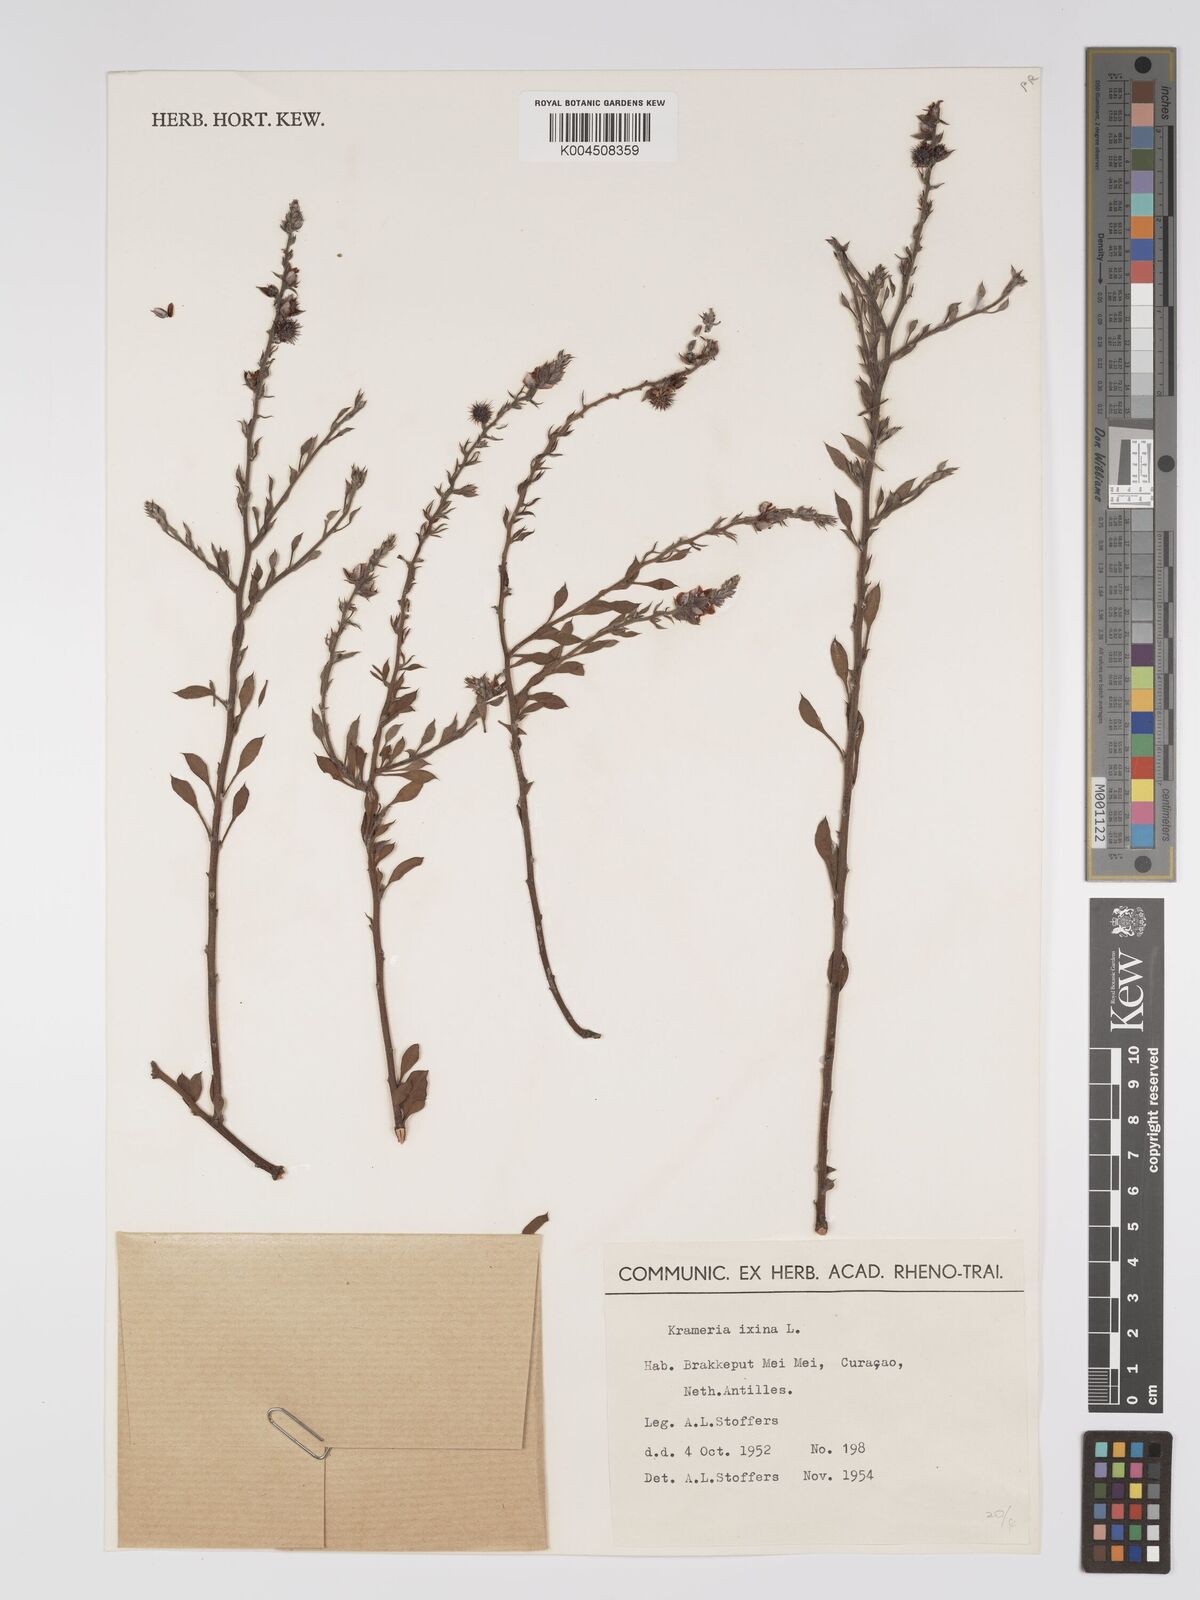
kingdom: Plantae
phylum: Tracheophyta
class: Magnoliopsida
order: Zygophyllales
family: Krameriaceae
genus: Krameria
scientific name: Krameria ixine
